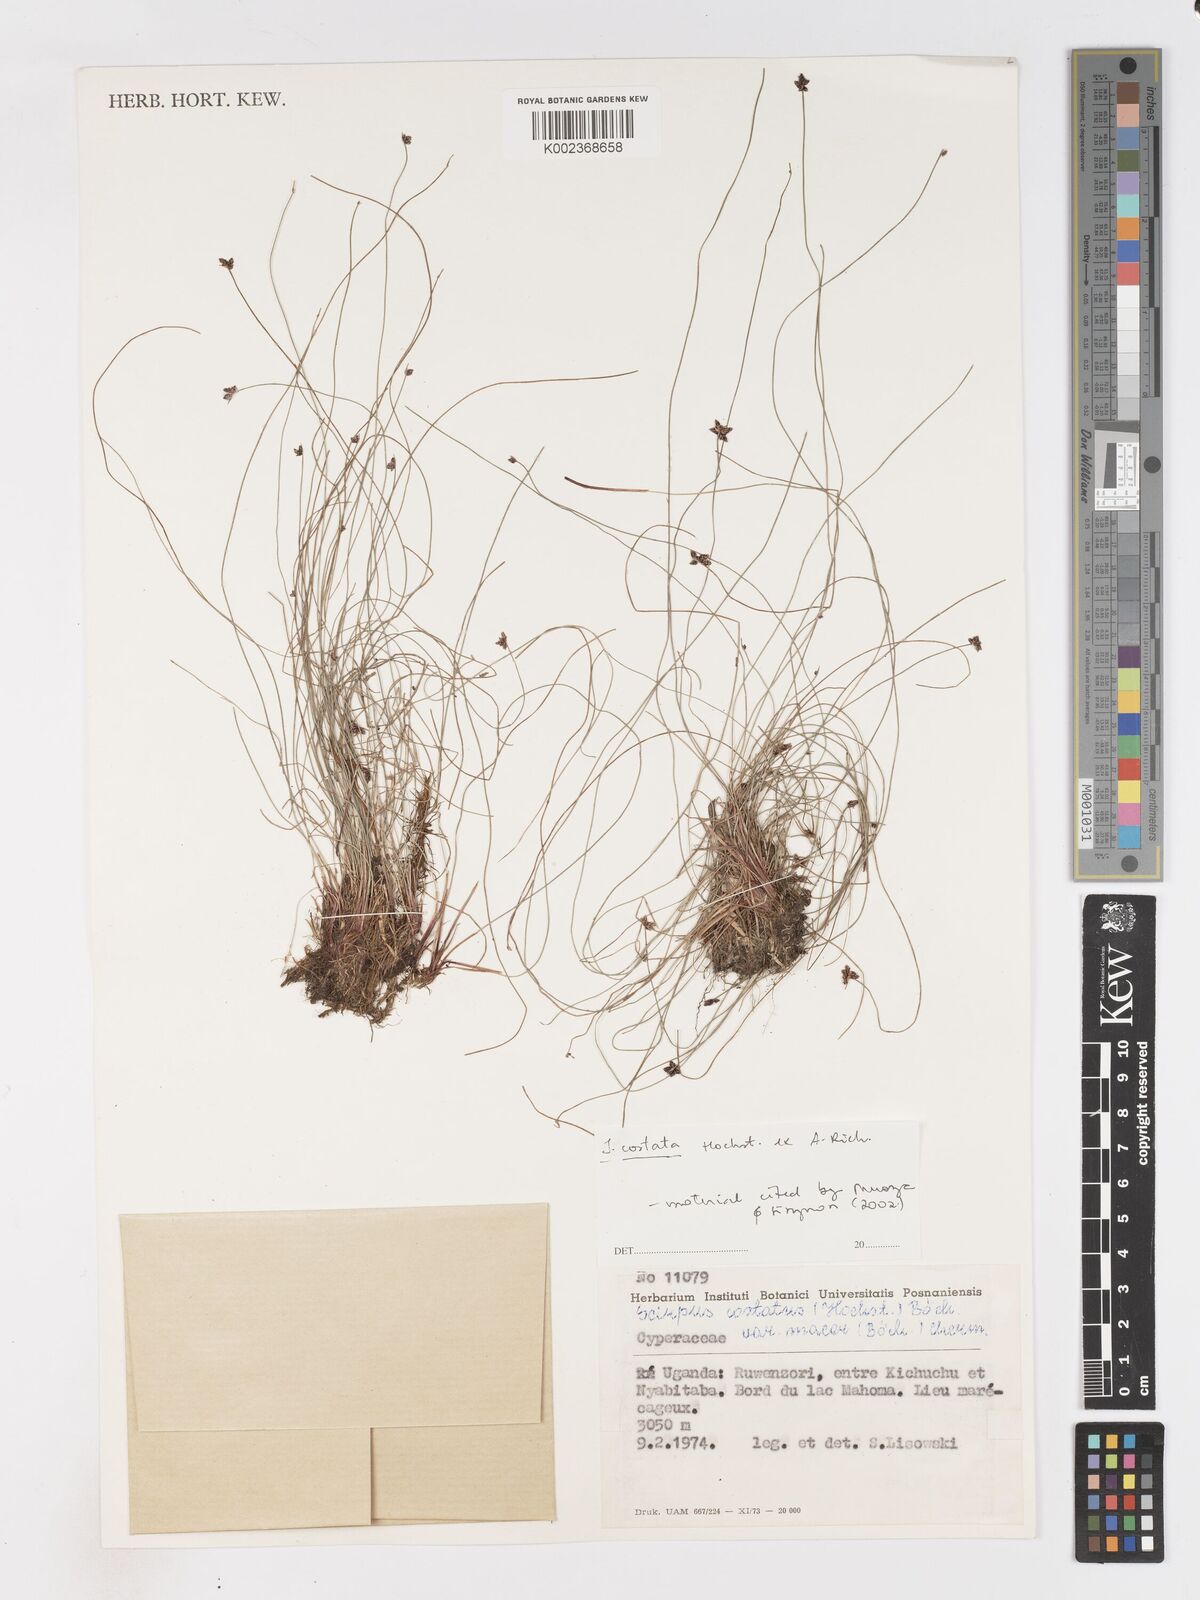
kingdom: Plantae
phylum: Tracheophyta
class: Liliopsida
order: Poales
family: Cyperaceae
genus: Isolepis
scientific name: Isolepis costata
